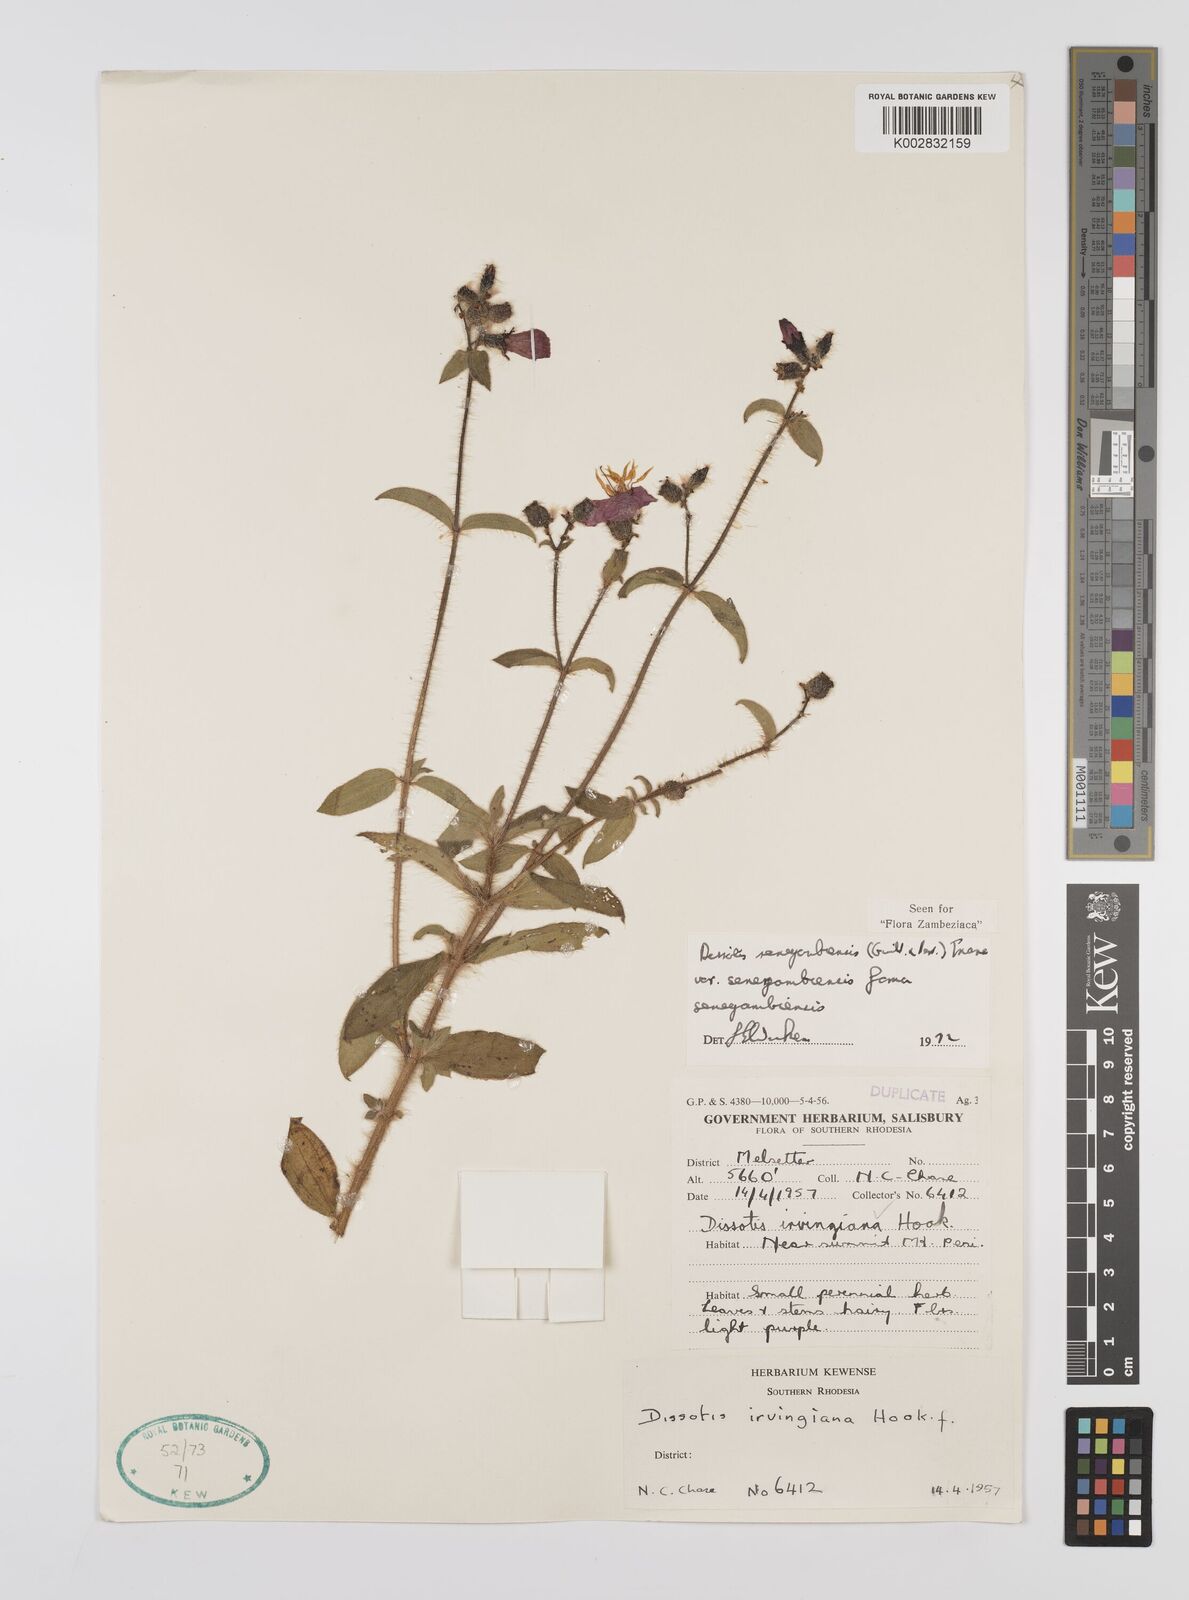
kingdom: Plantae
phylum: Tracheophyta
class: Magnoliopsida
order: Myrtales
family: Melastomataceae
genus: Nerophila
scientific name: Nerophila senegambiensis
